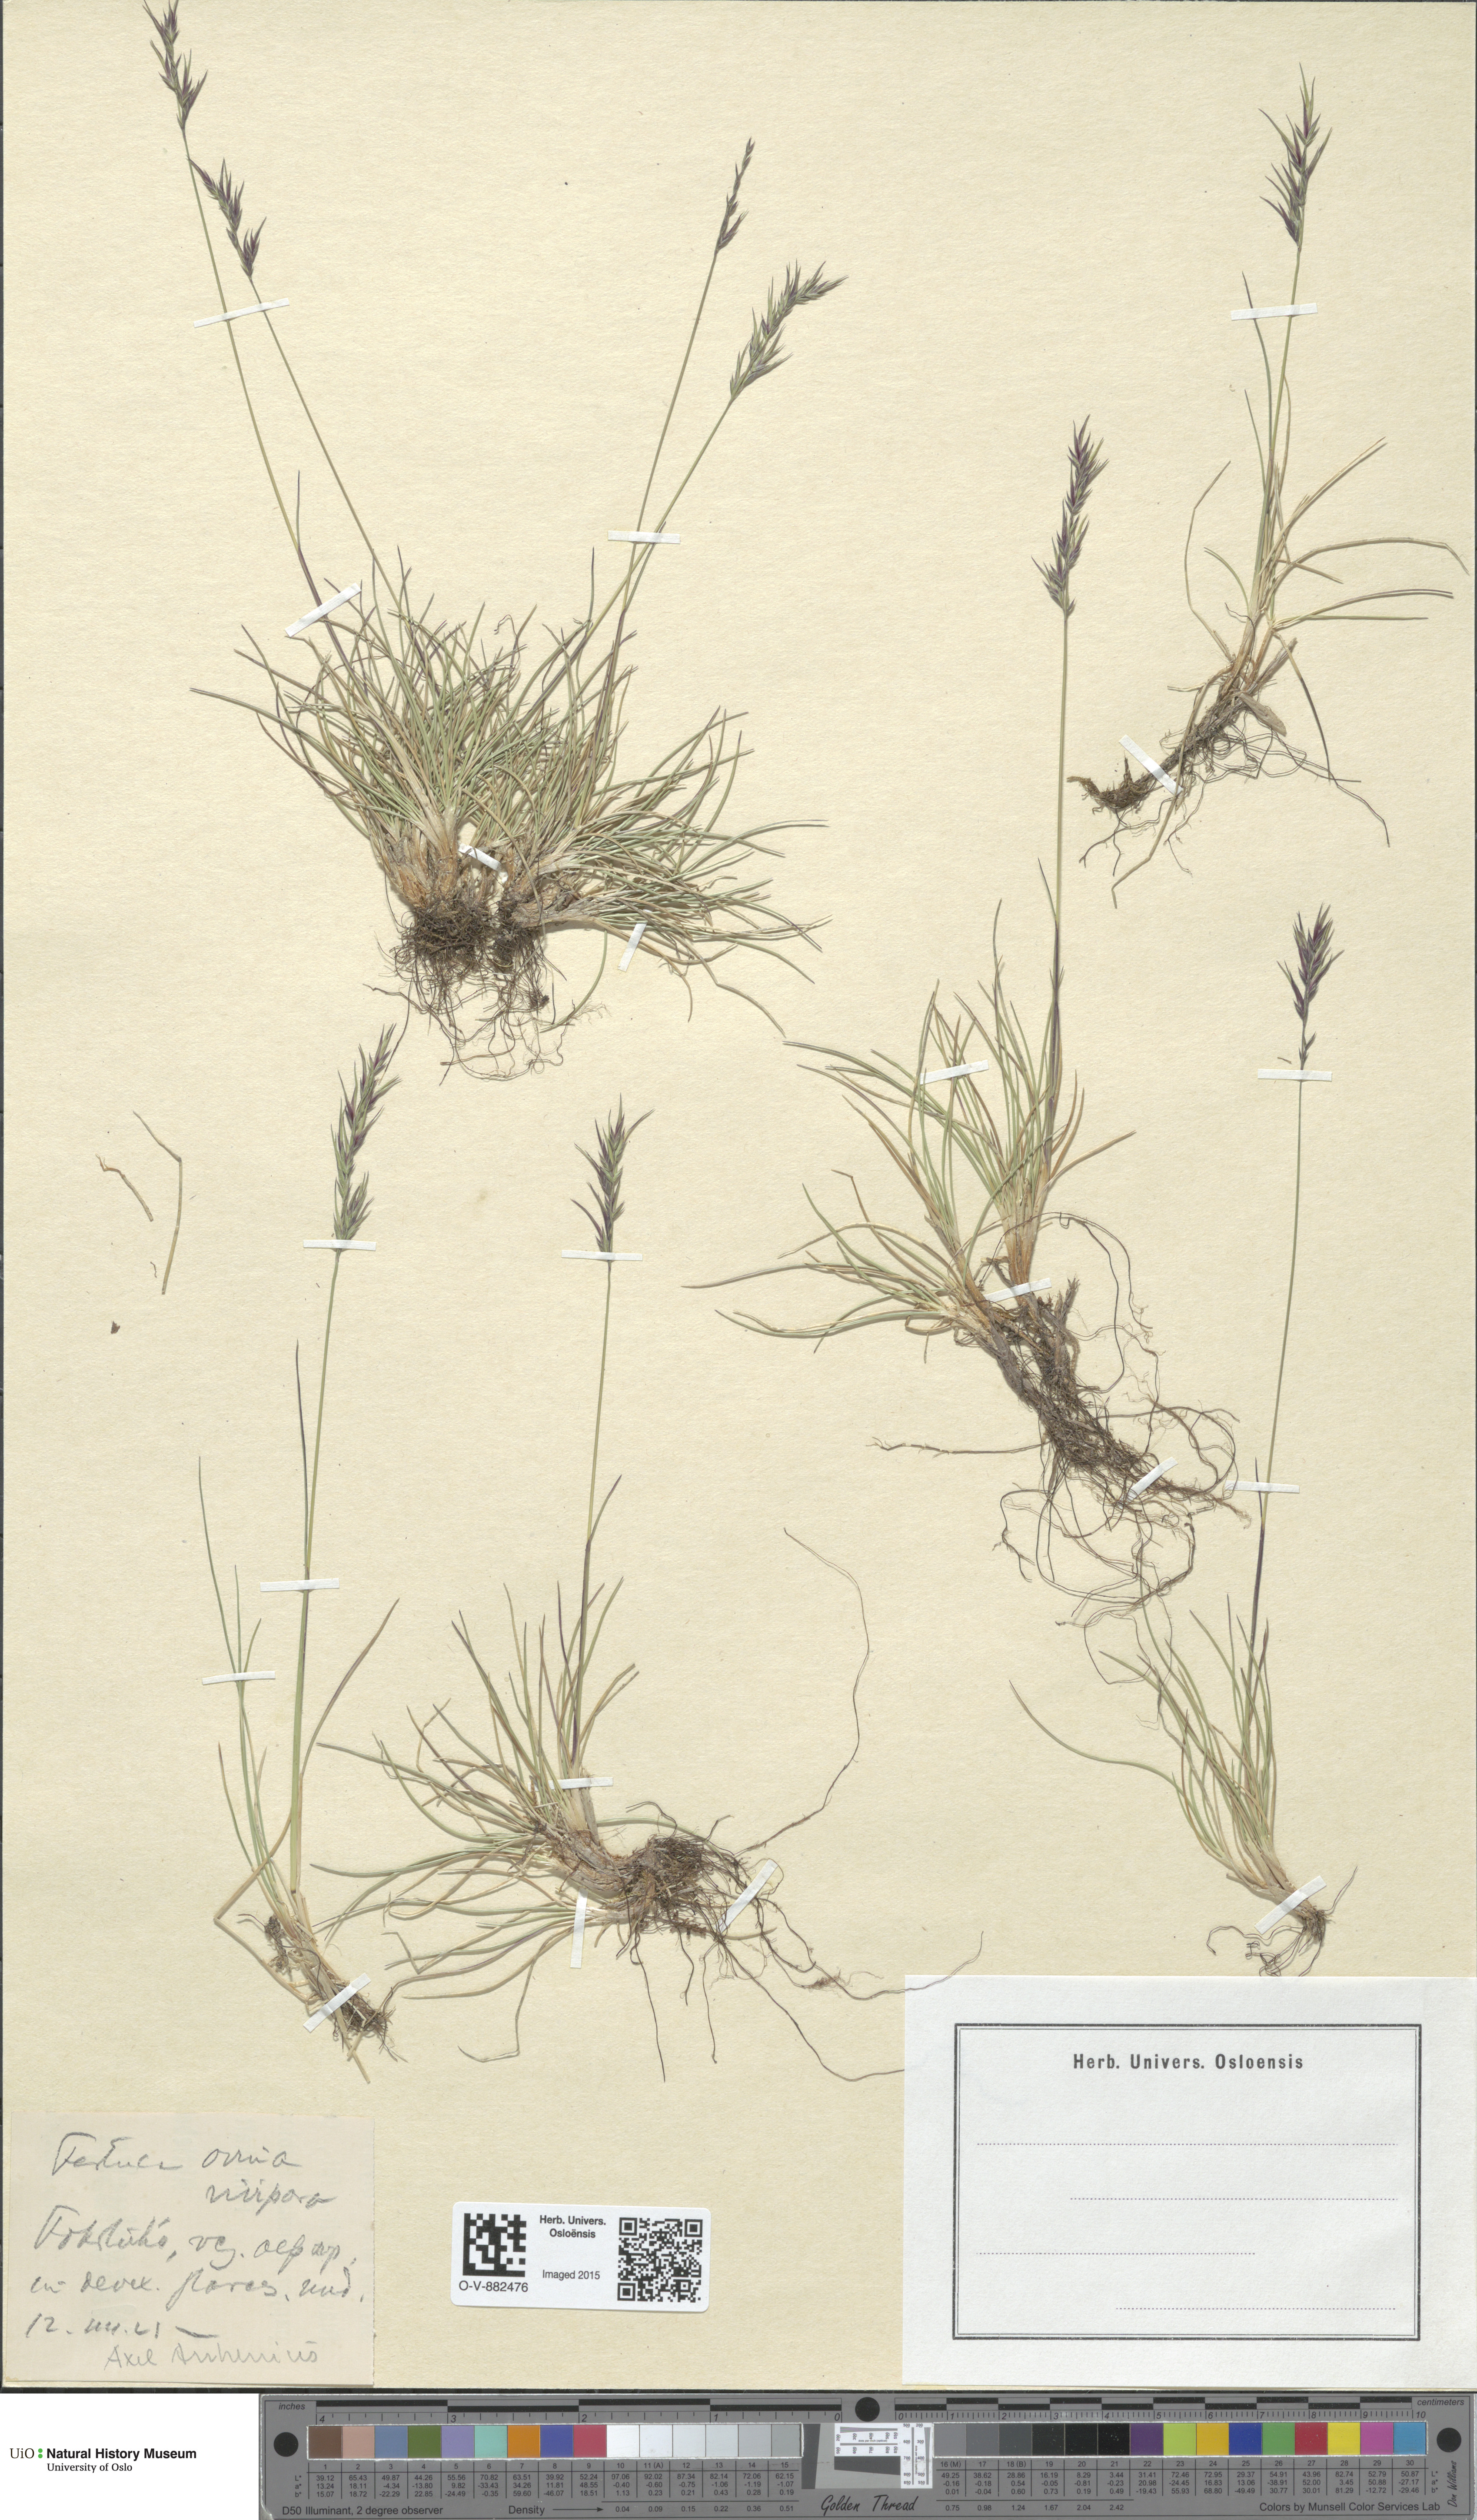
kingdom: Plantae
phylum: Tracheophyta
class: Liliopsida
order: Poales
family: Poaceae
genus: Festuca
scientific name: Festuca vivipara
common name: Viviparous sheep's-fescue
